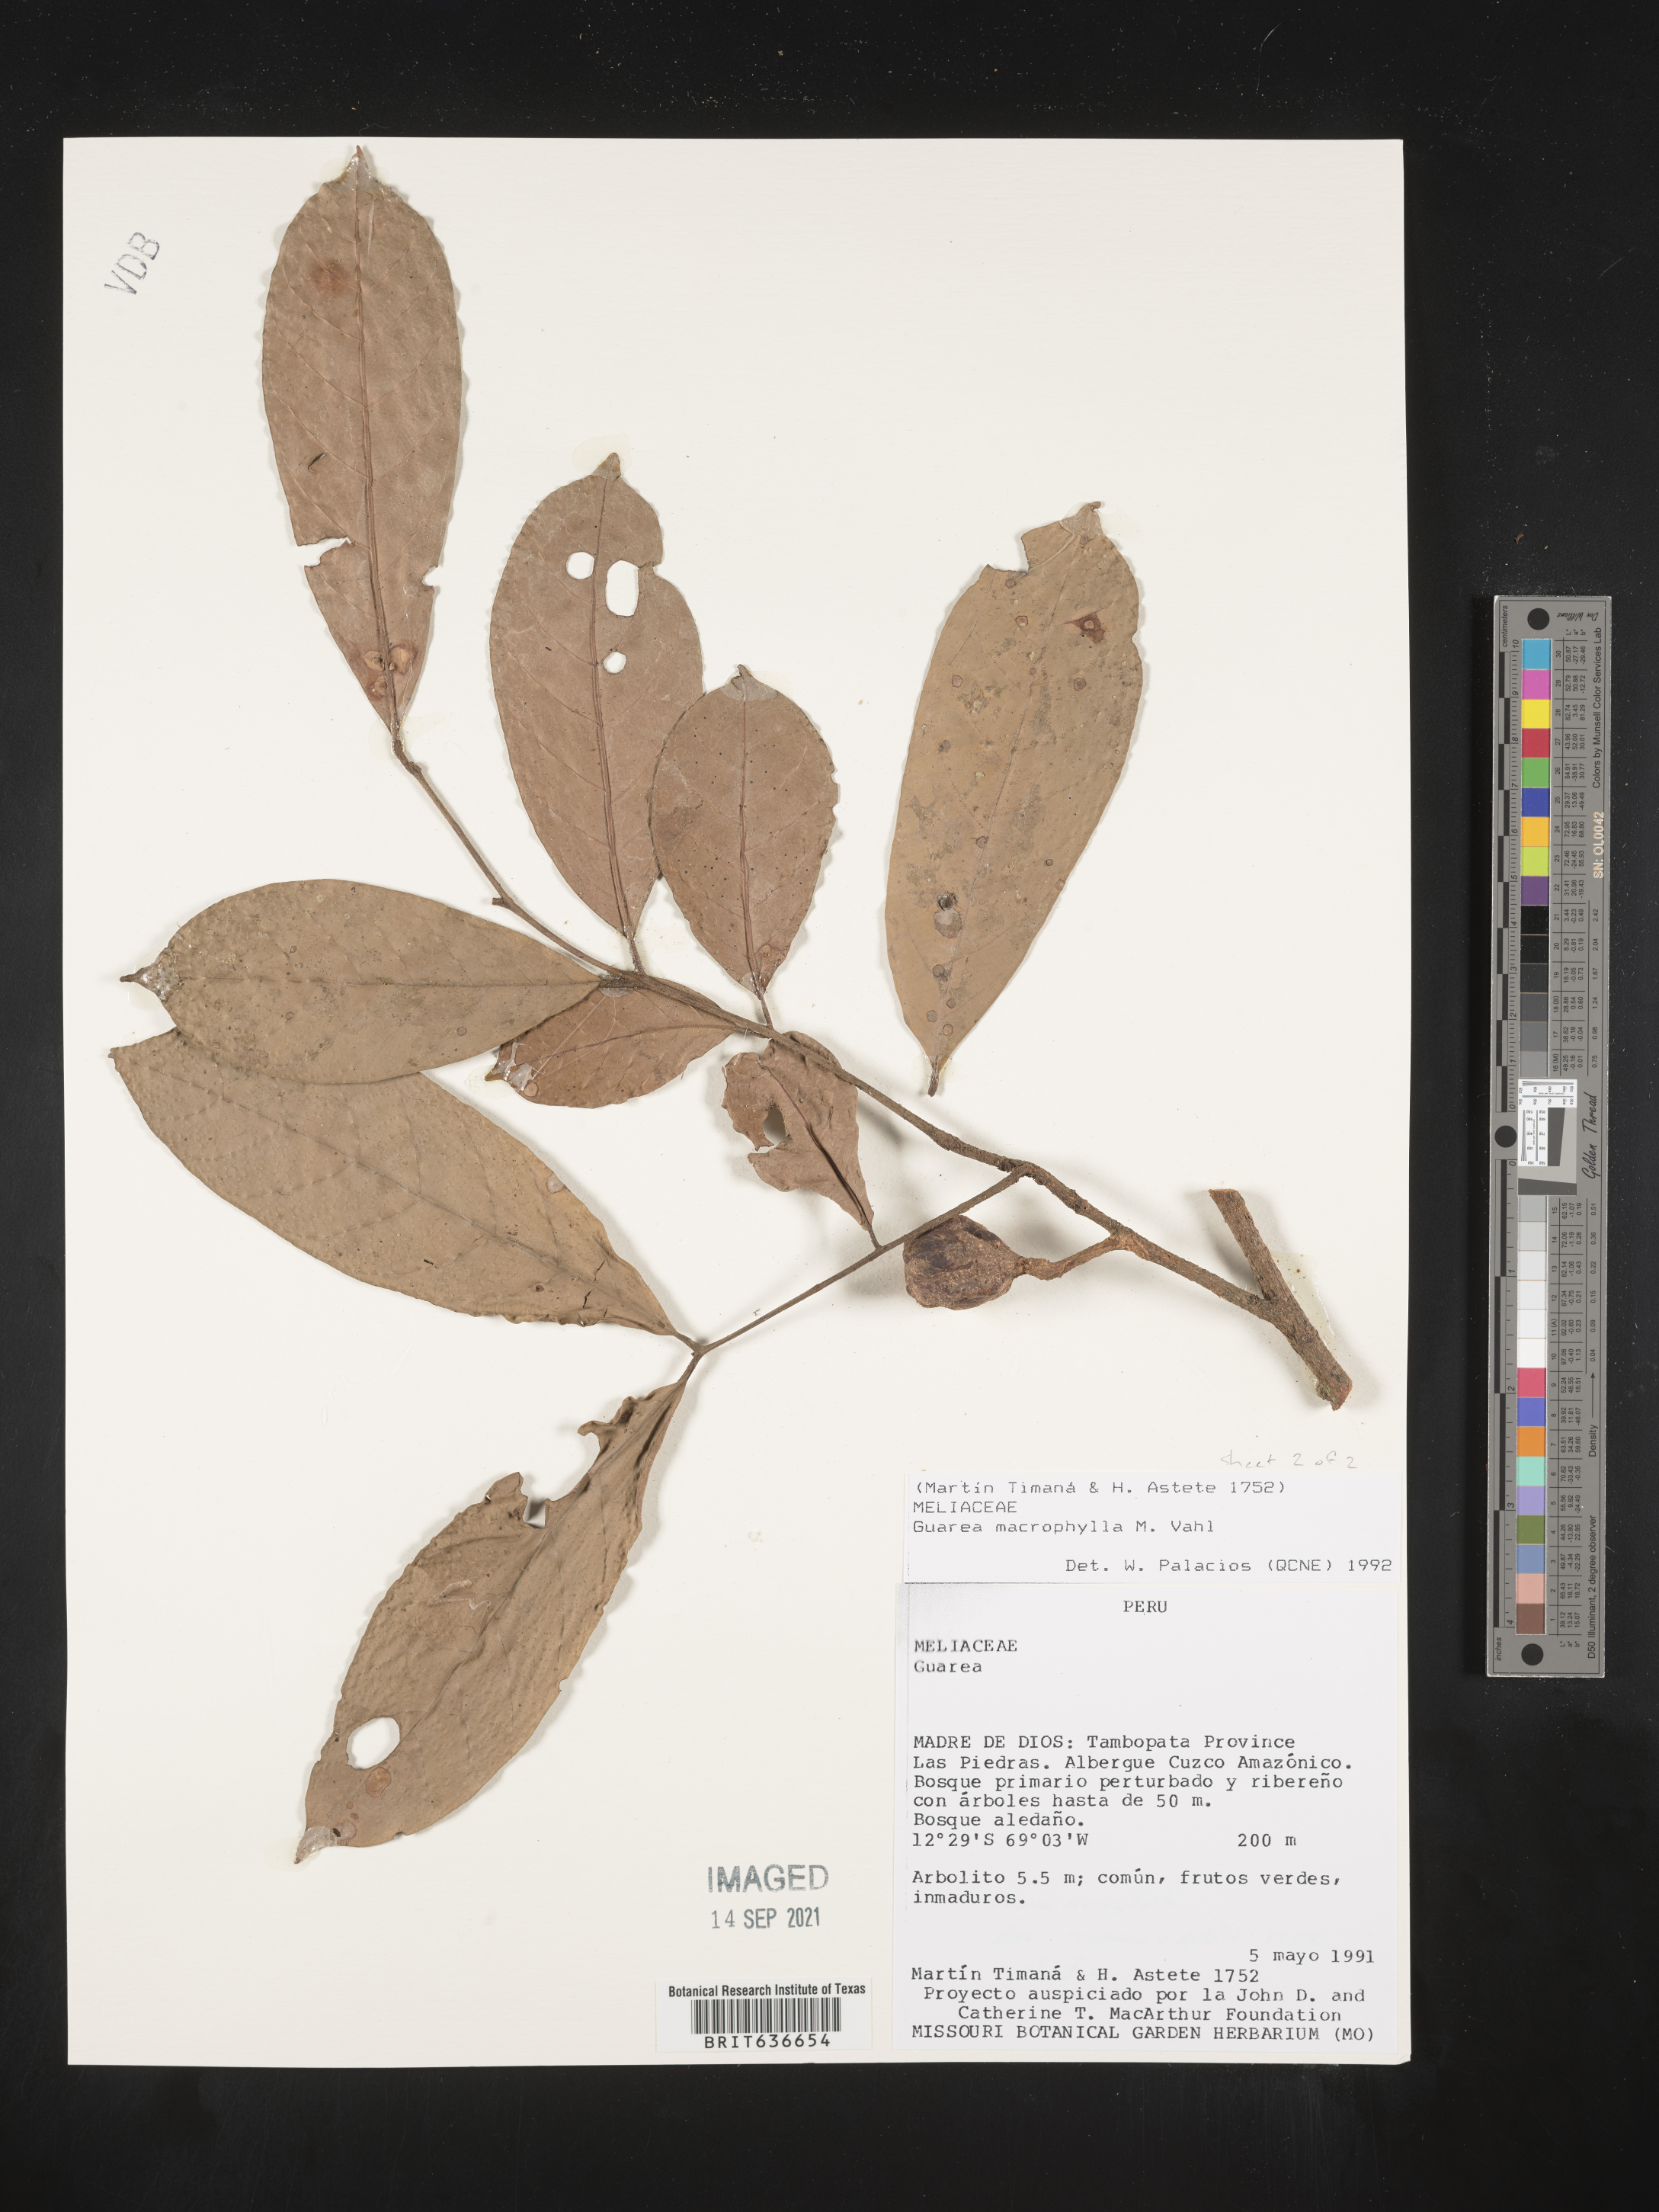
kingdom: Plantae
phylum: Tracheophyta
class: Magnoliopsida
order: Sapindales
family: Meliaceae
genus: Guarea
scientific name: Guarea
